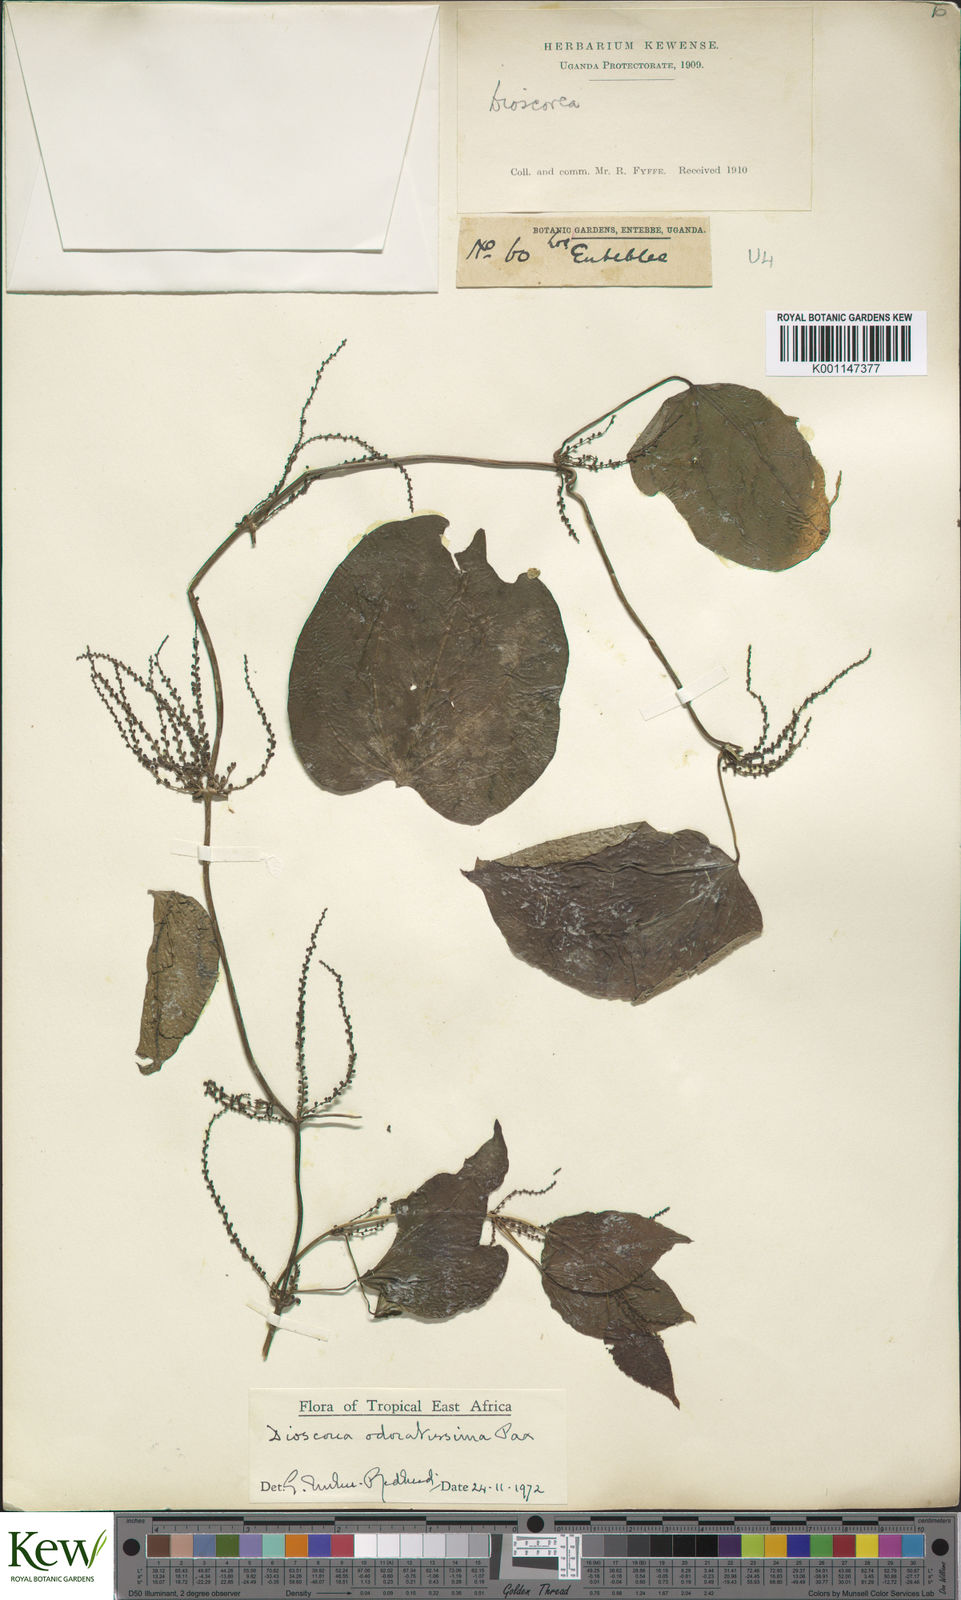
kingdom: Plantae
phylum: Tracheophyta
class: Liliopsida
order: Dioscoreales
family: Dioscoreaceae
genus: Dioscorea
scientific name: Dioscorea praehensilis
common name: Bush yam
